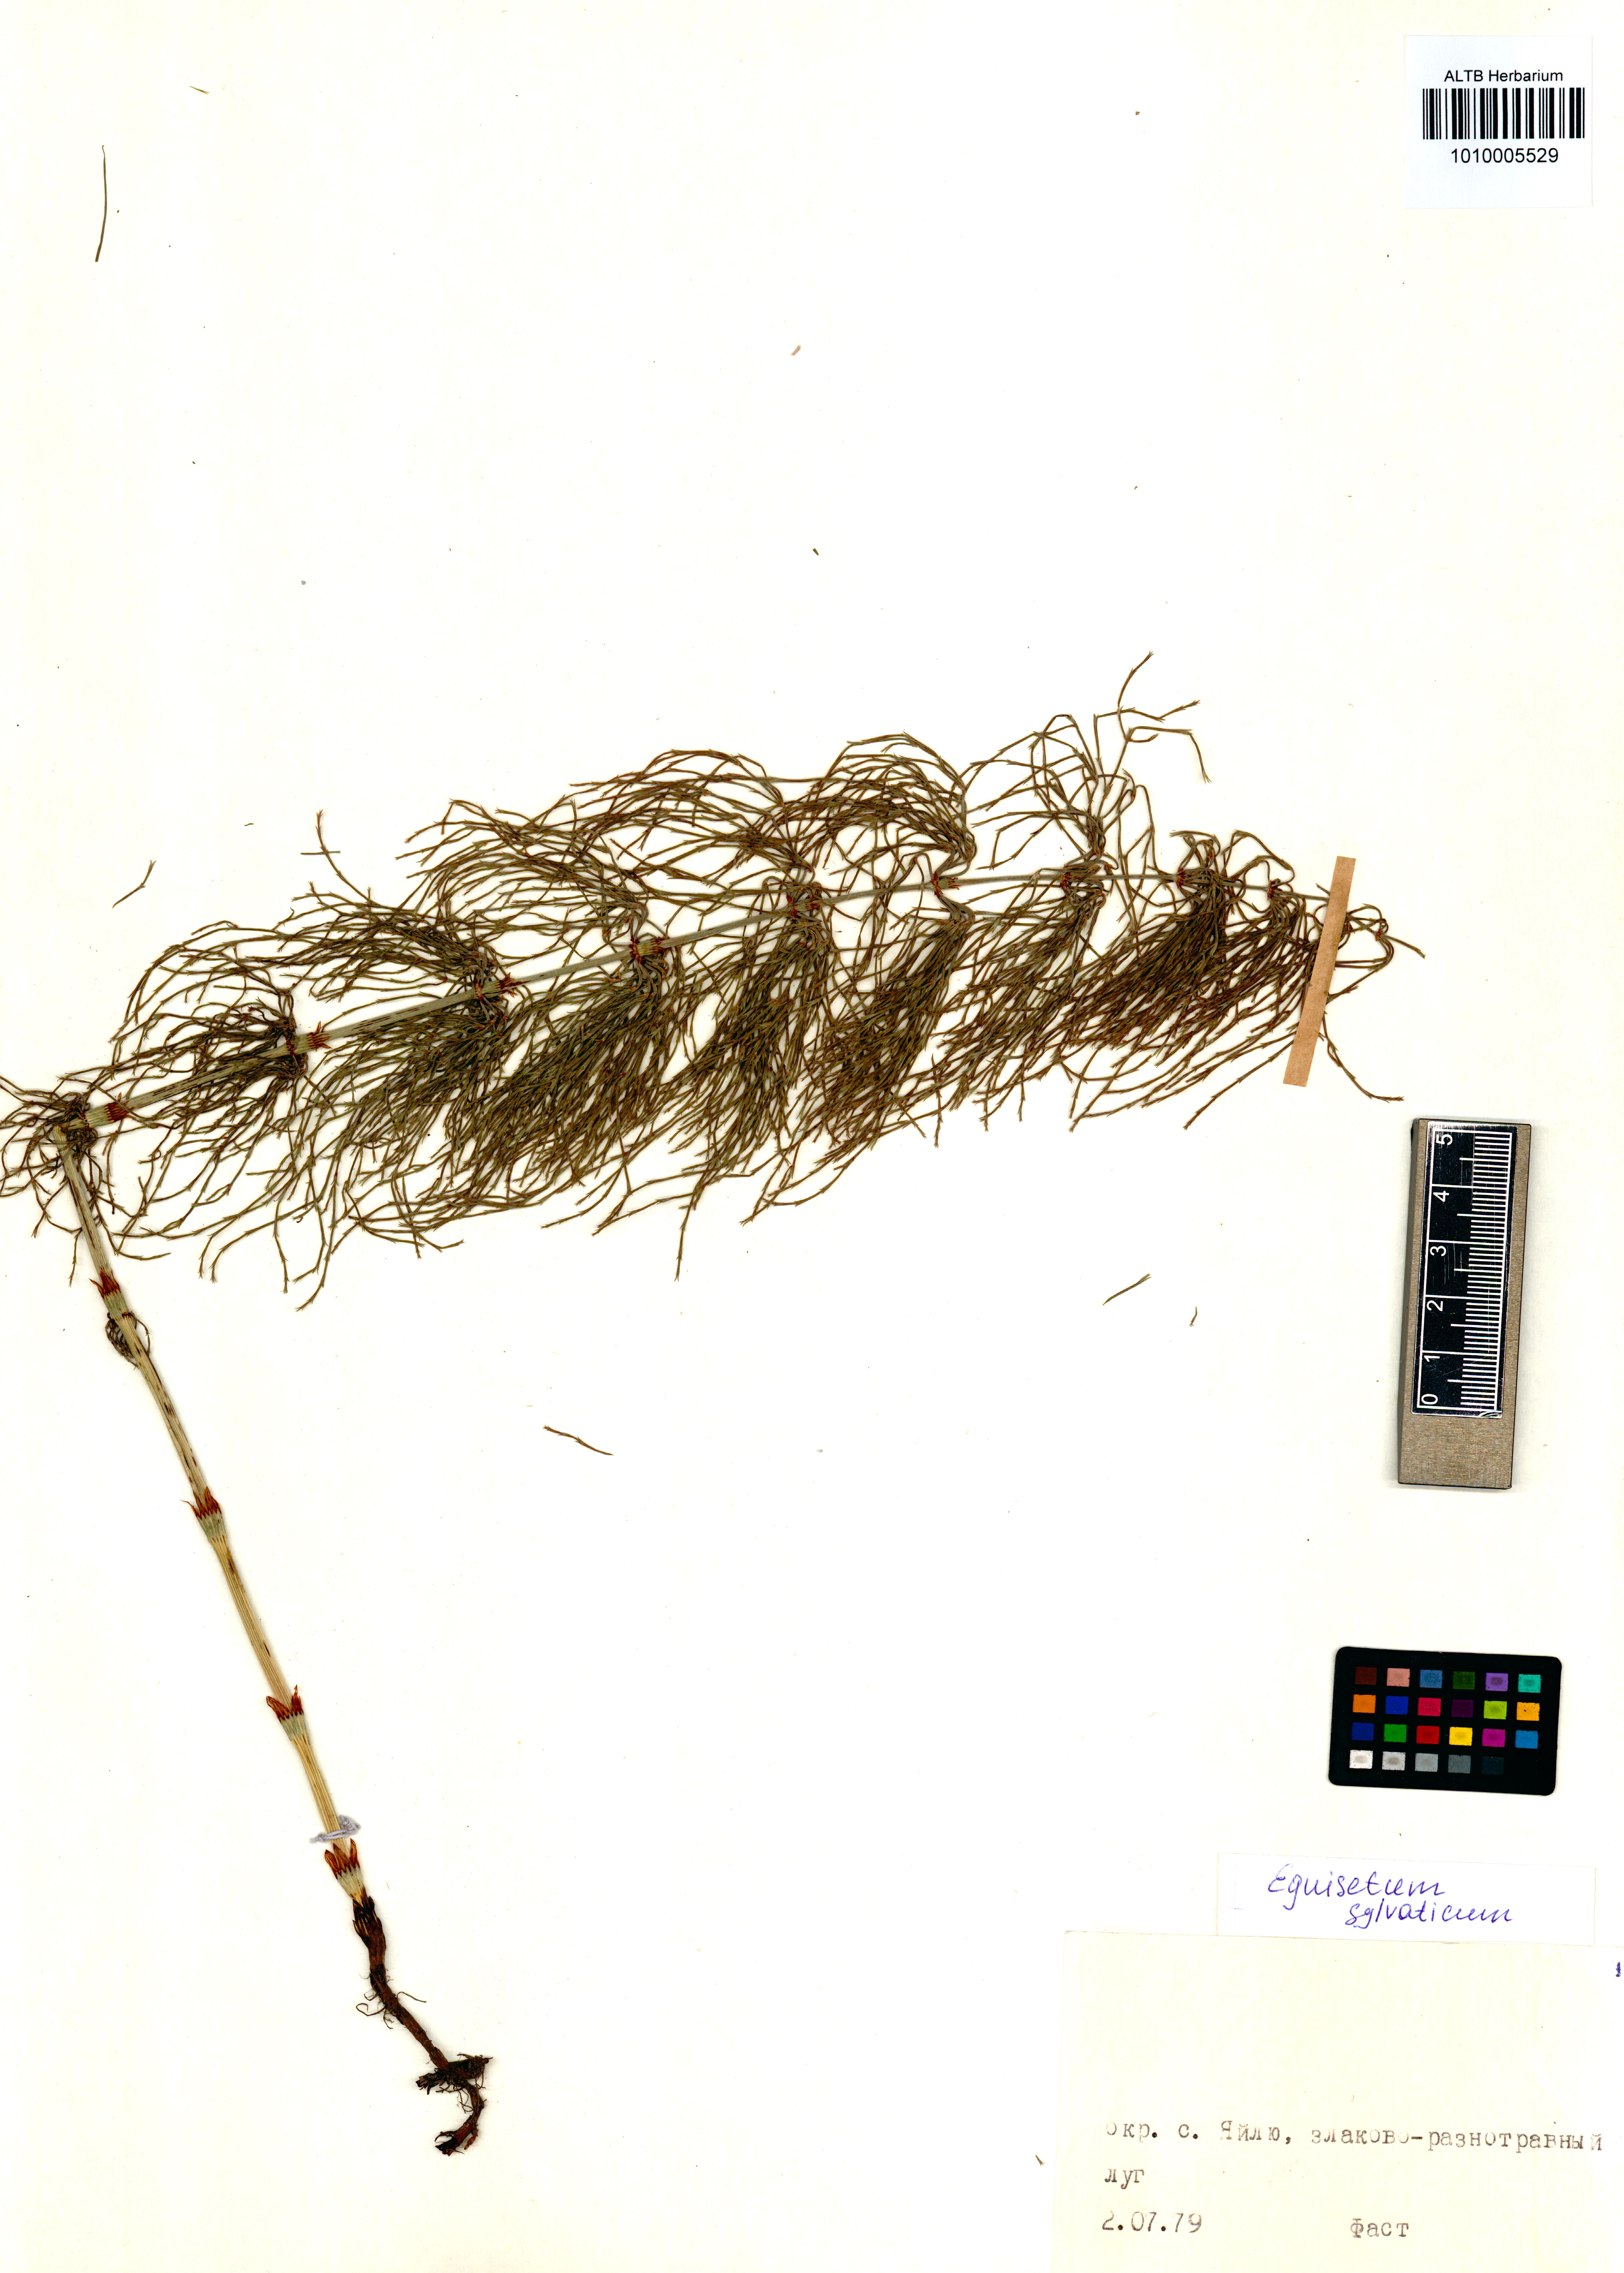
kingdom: Plantae
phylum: Tracheophyta
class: Polypodiopsida
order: Equisetales
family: Equisetaceae
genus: Equisetum
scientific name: Equisetum sylvaticum
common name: Wood horsetail
